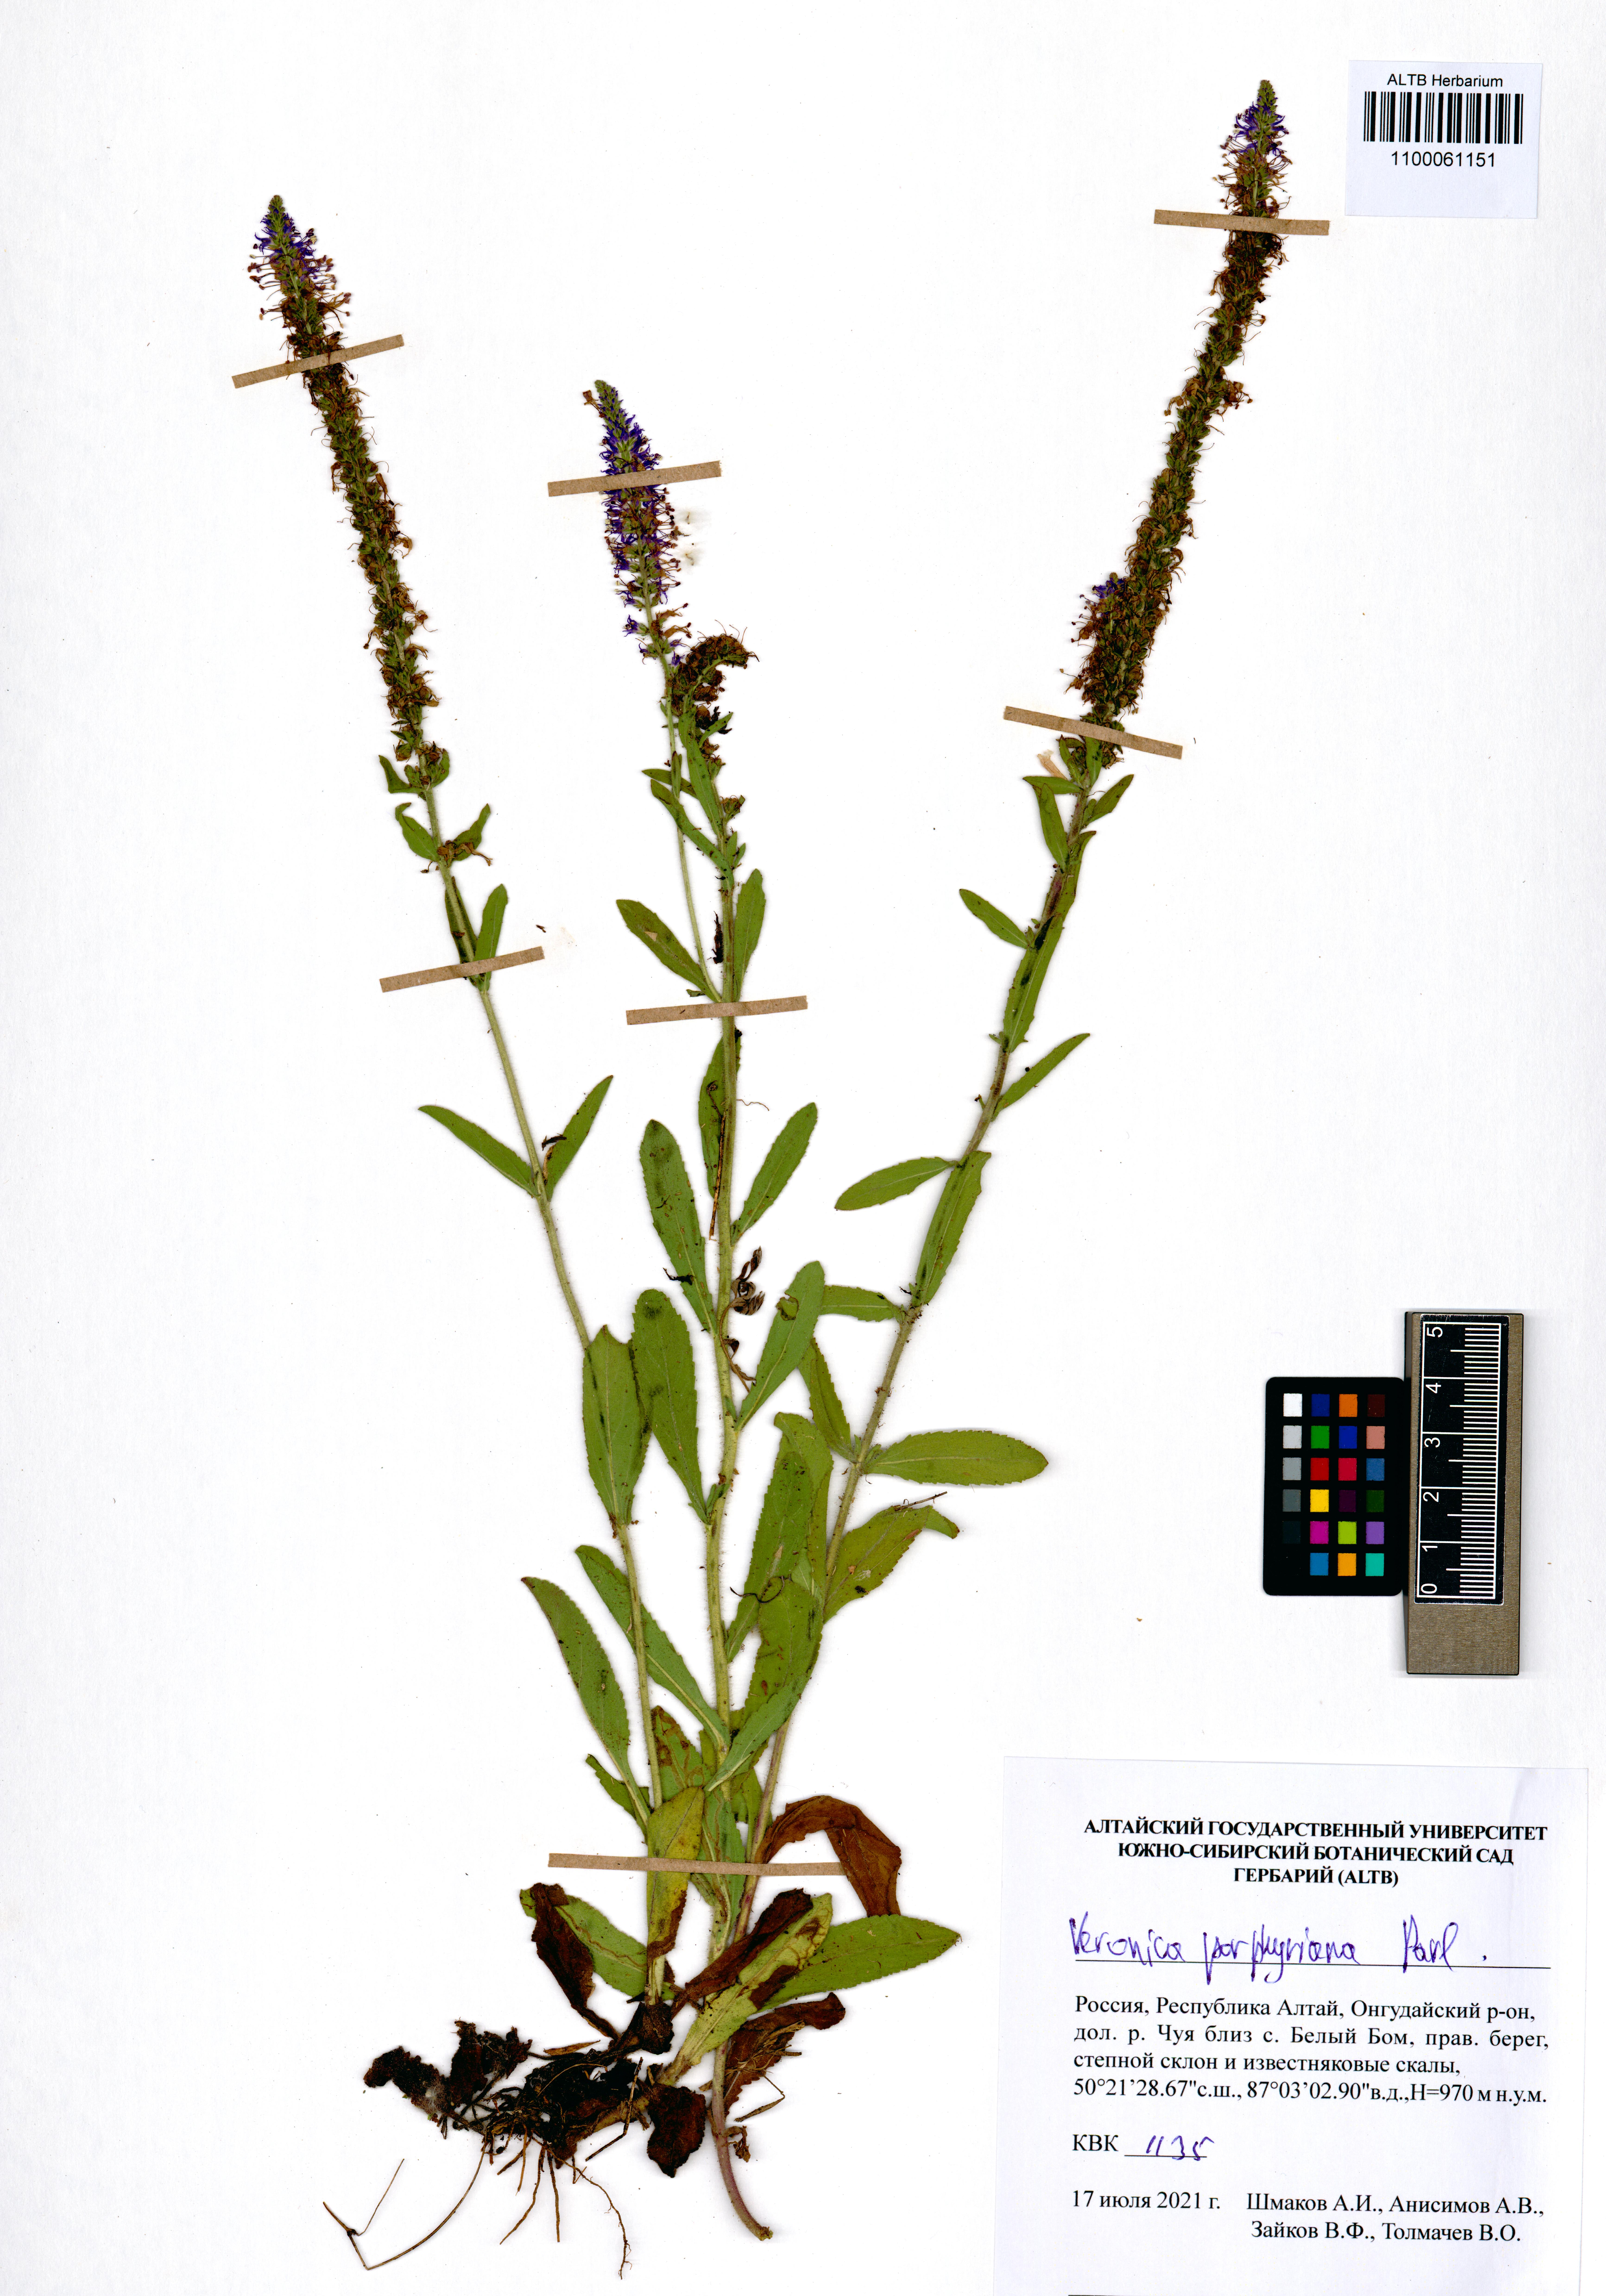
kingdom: Plantae
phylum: Tracheophyta
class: Magnoliopsida
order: Lamiales
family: Plantaginaceae
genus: Veronica
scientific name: Veronica porphyriana
